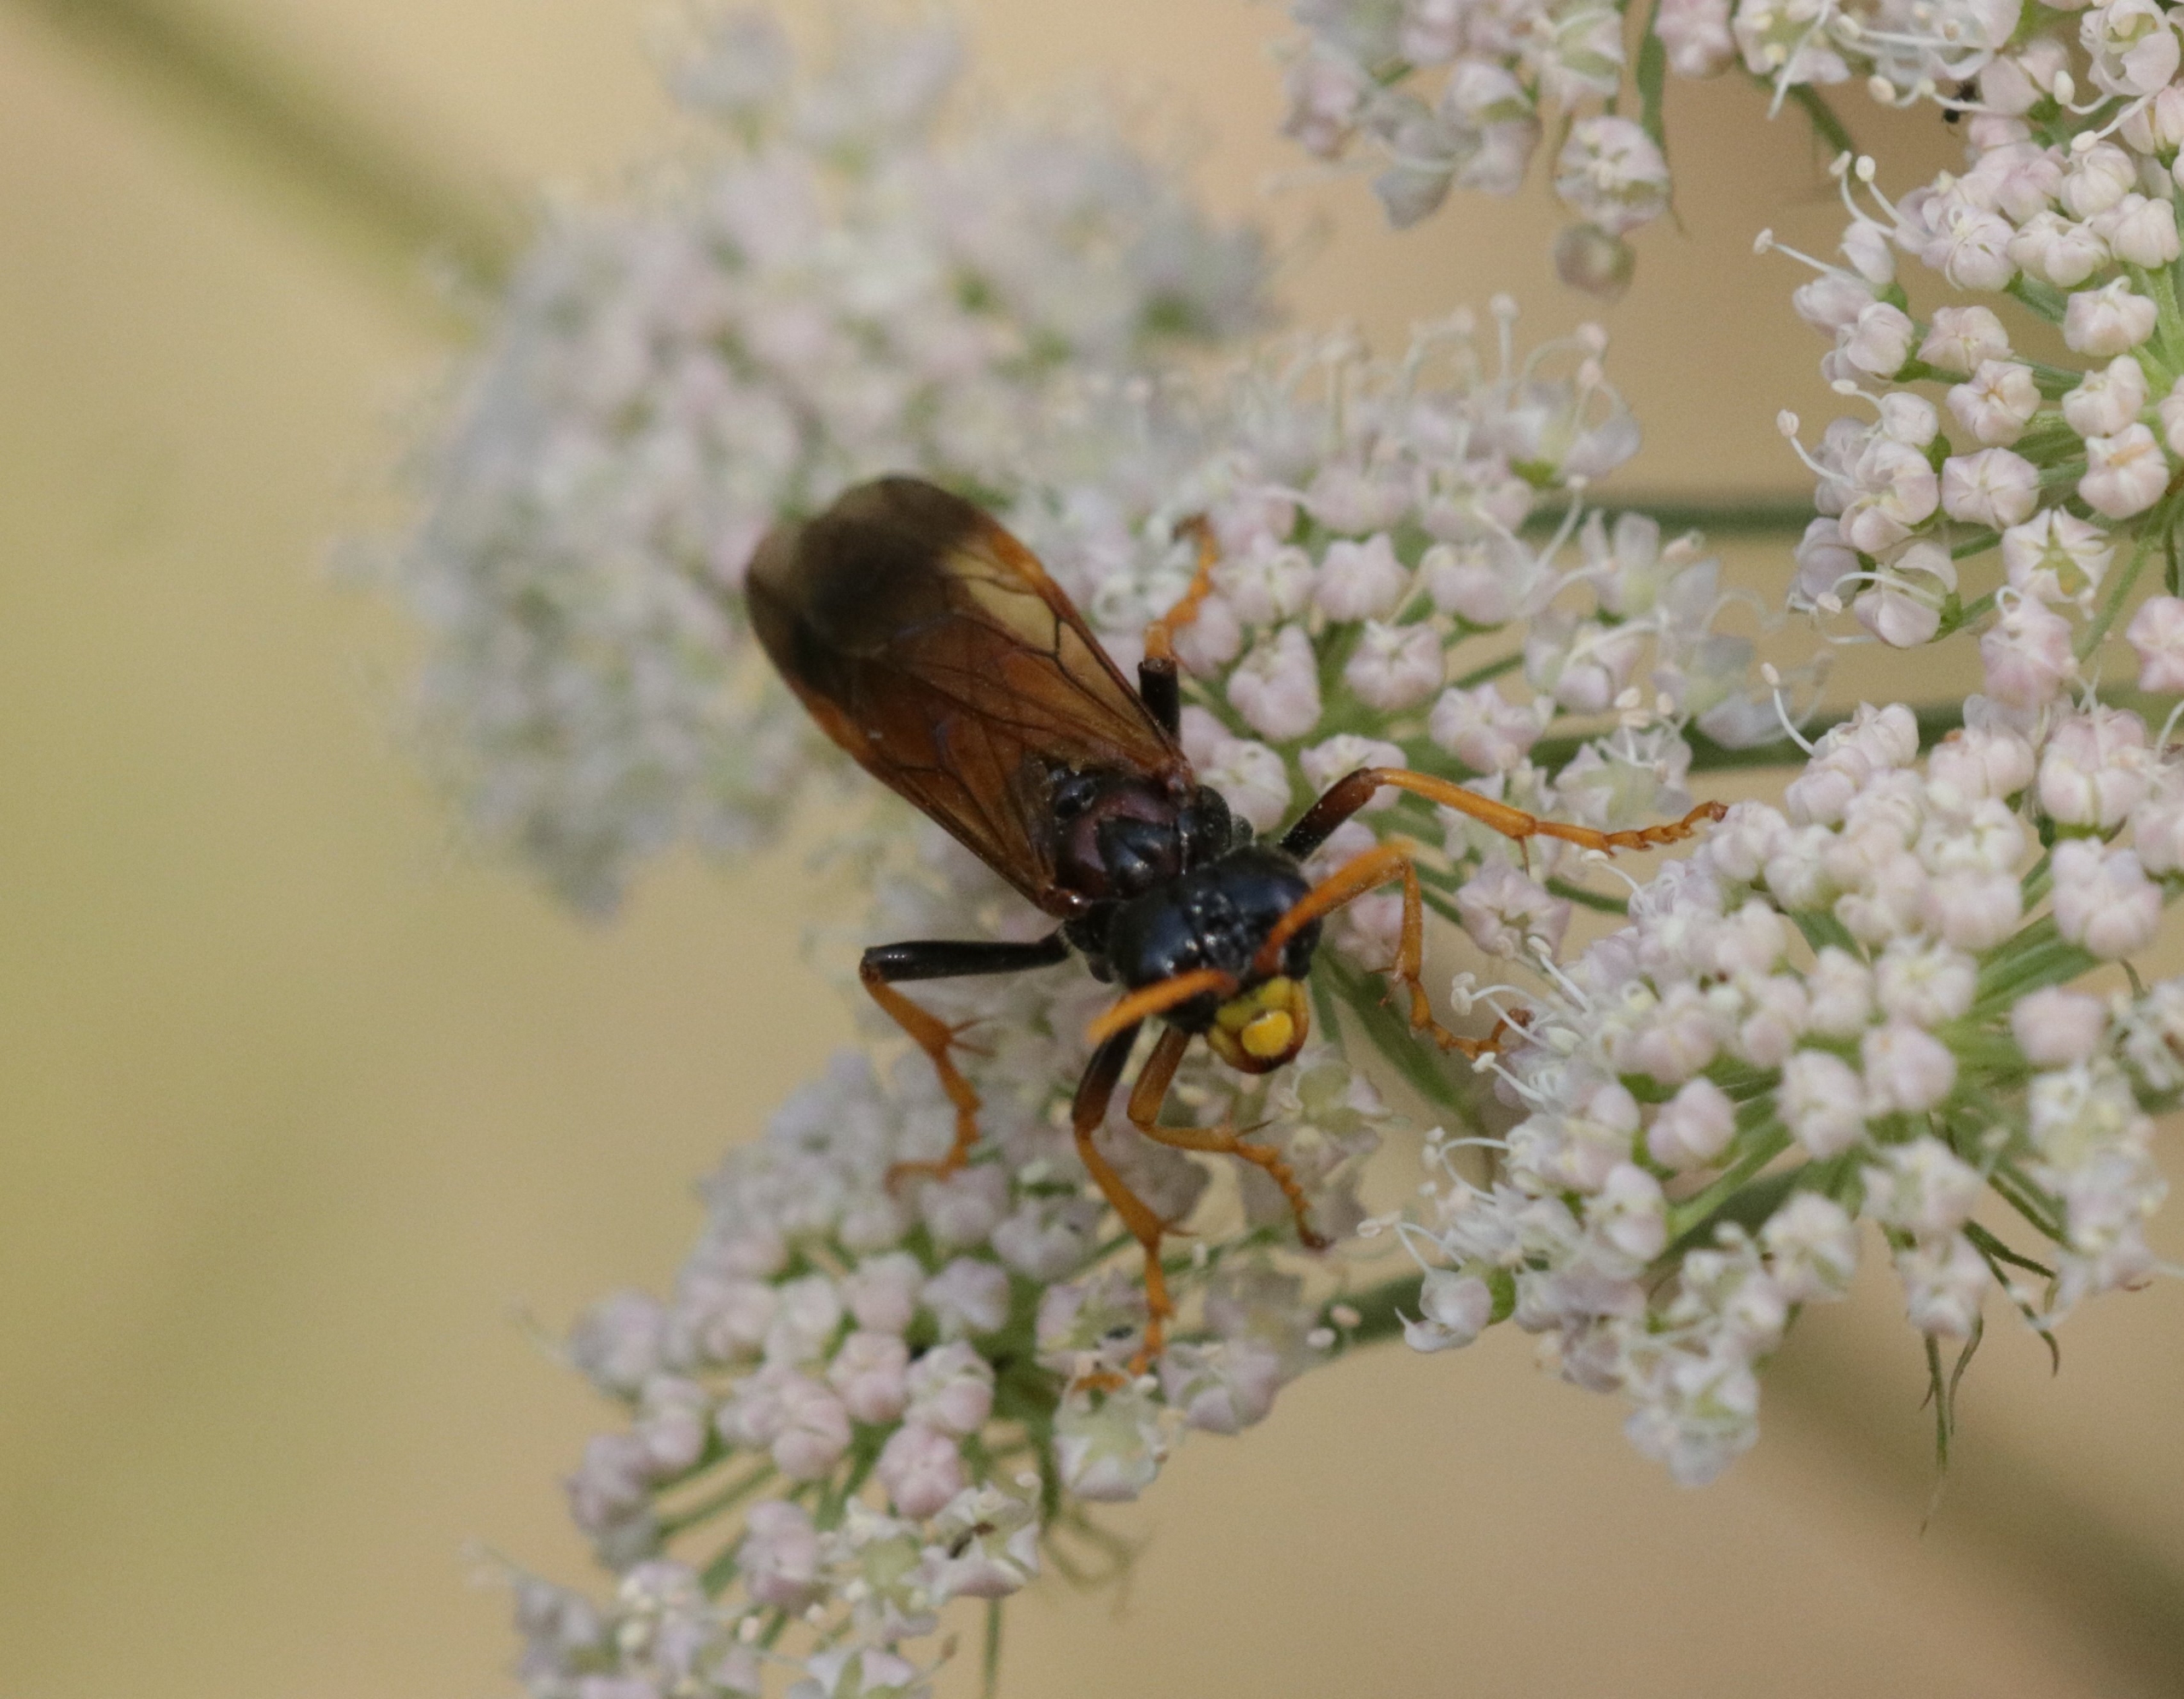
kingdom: Animalia
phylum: Arthropoda
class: Insecta
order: Hymenoptera
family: Tenthredinidae
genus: Tenthredo
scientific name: Tenthredo campestris
